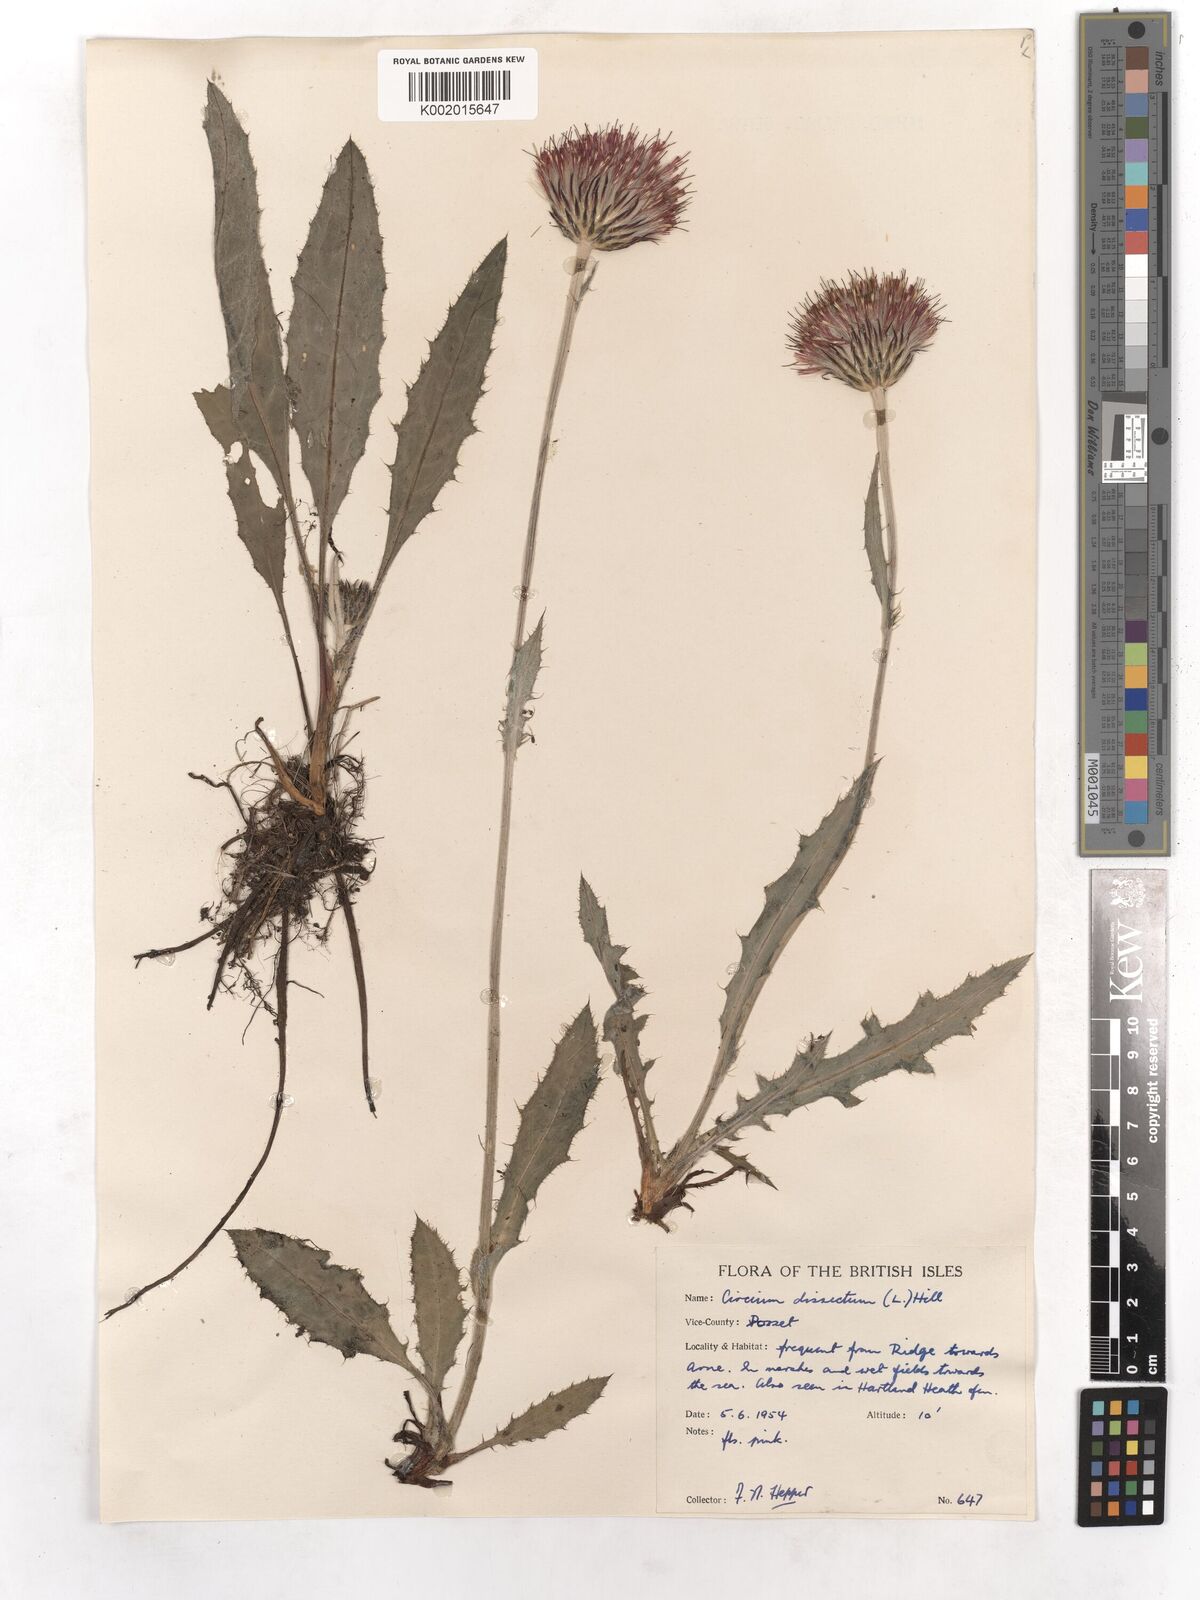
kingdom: Plantae
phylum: Tracheophyta
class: Magnoliopsida
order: Asterales
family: Asteraceae
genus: Cirsium
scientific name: Cirsium dissectum
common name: Meadow thistle
